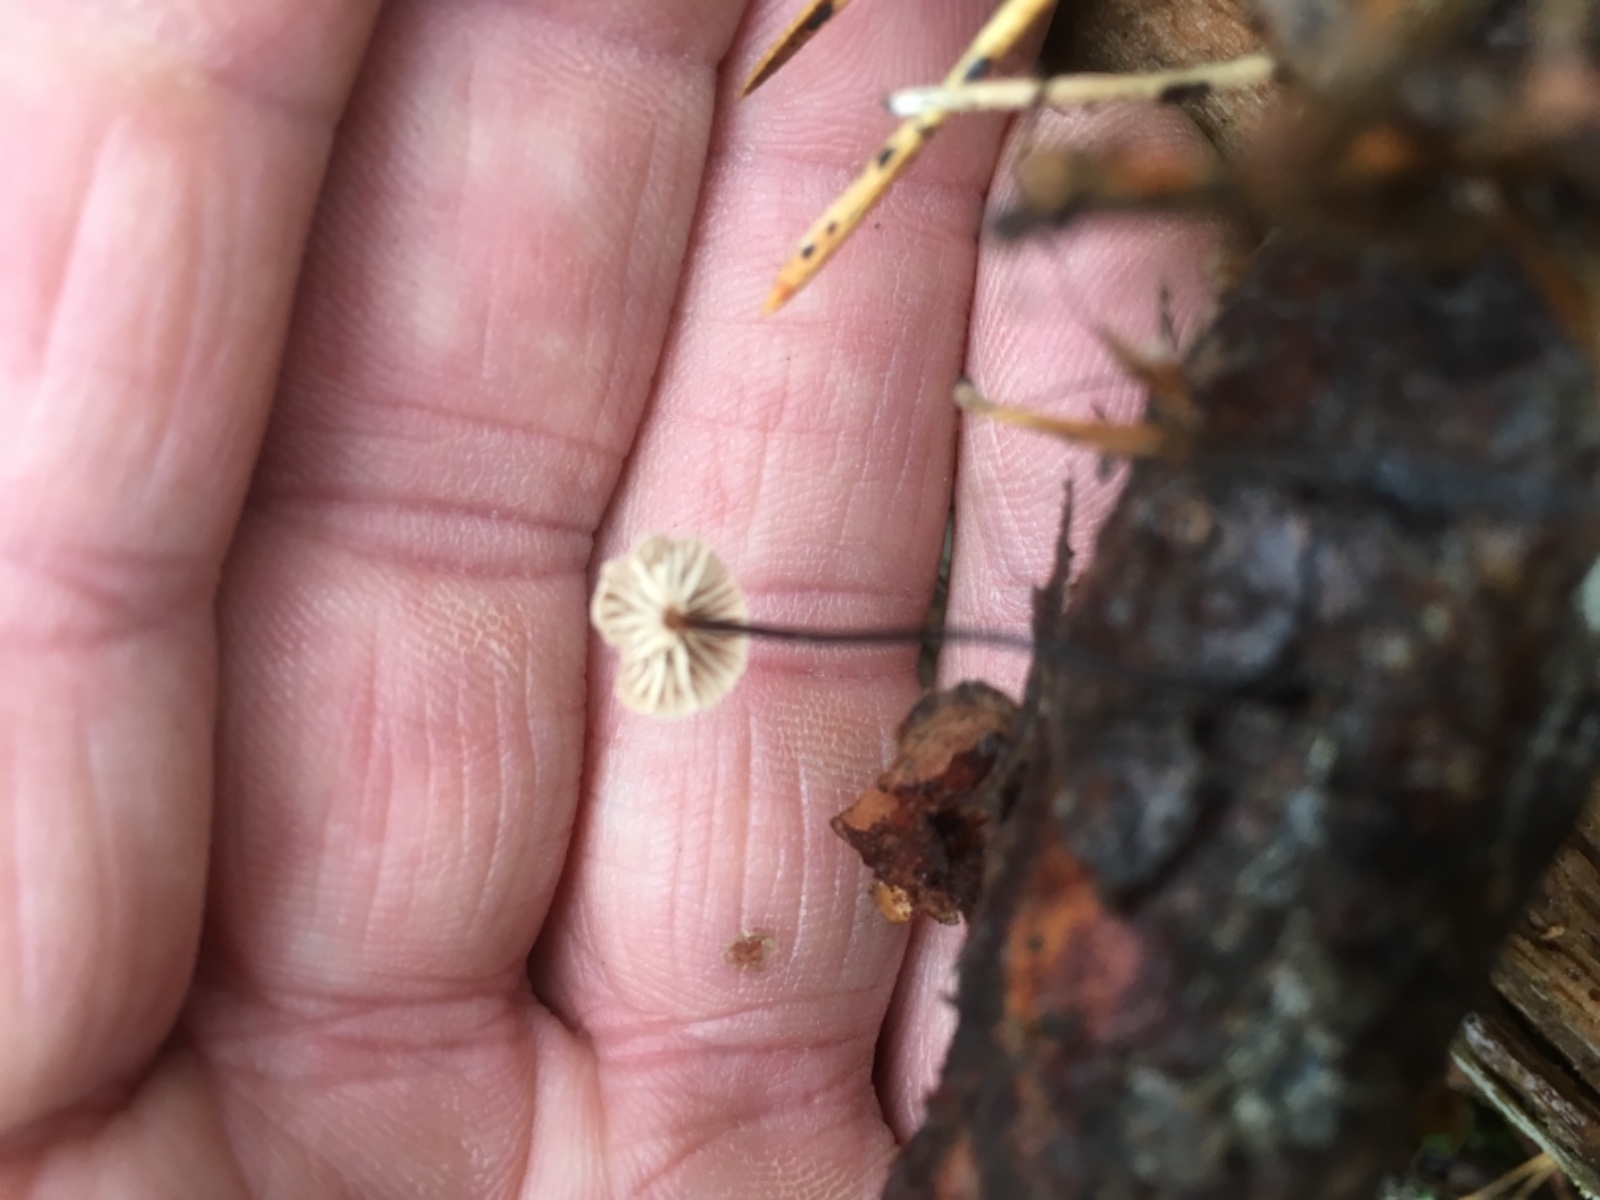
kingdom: Fungi
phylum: Basidiomycota
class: Agaricomycetes
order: Agaricales
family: Omphalotaceae
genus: Gymnopus
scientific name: Gymnopus androsaceus
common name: trådstokket fladhat
